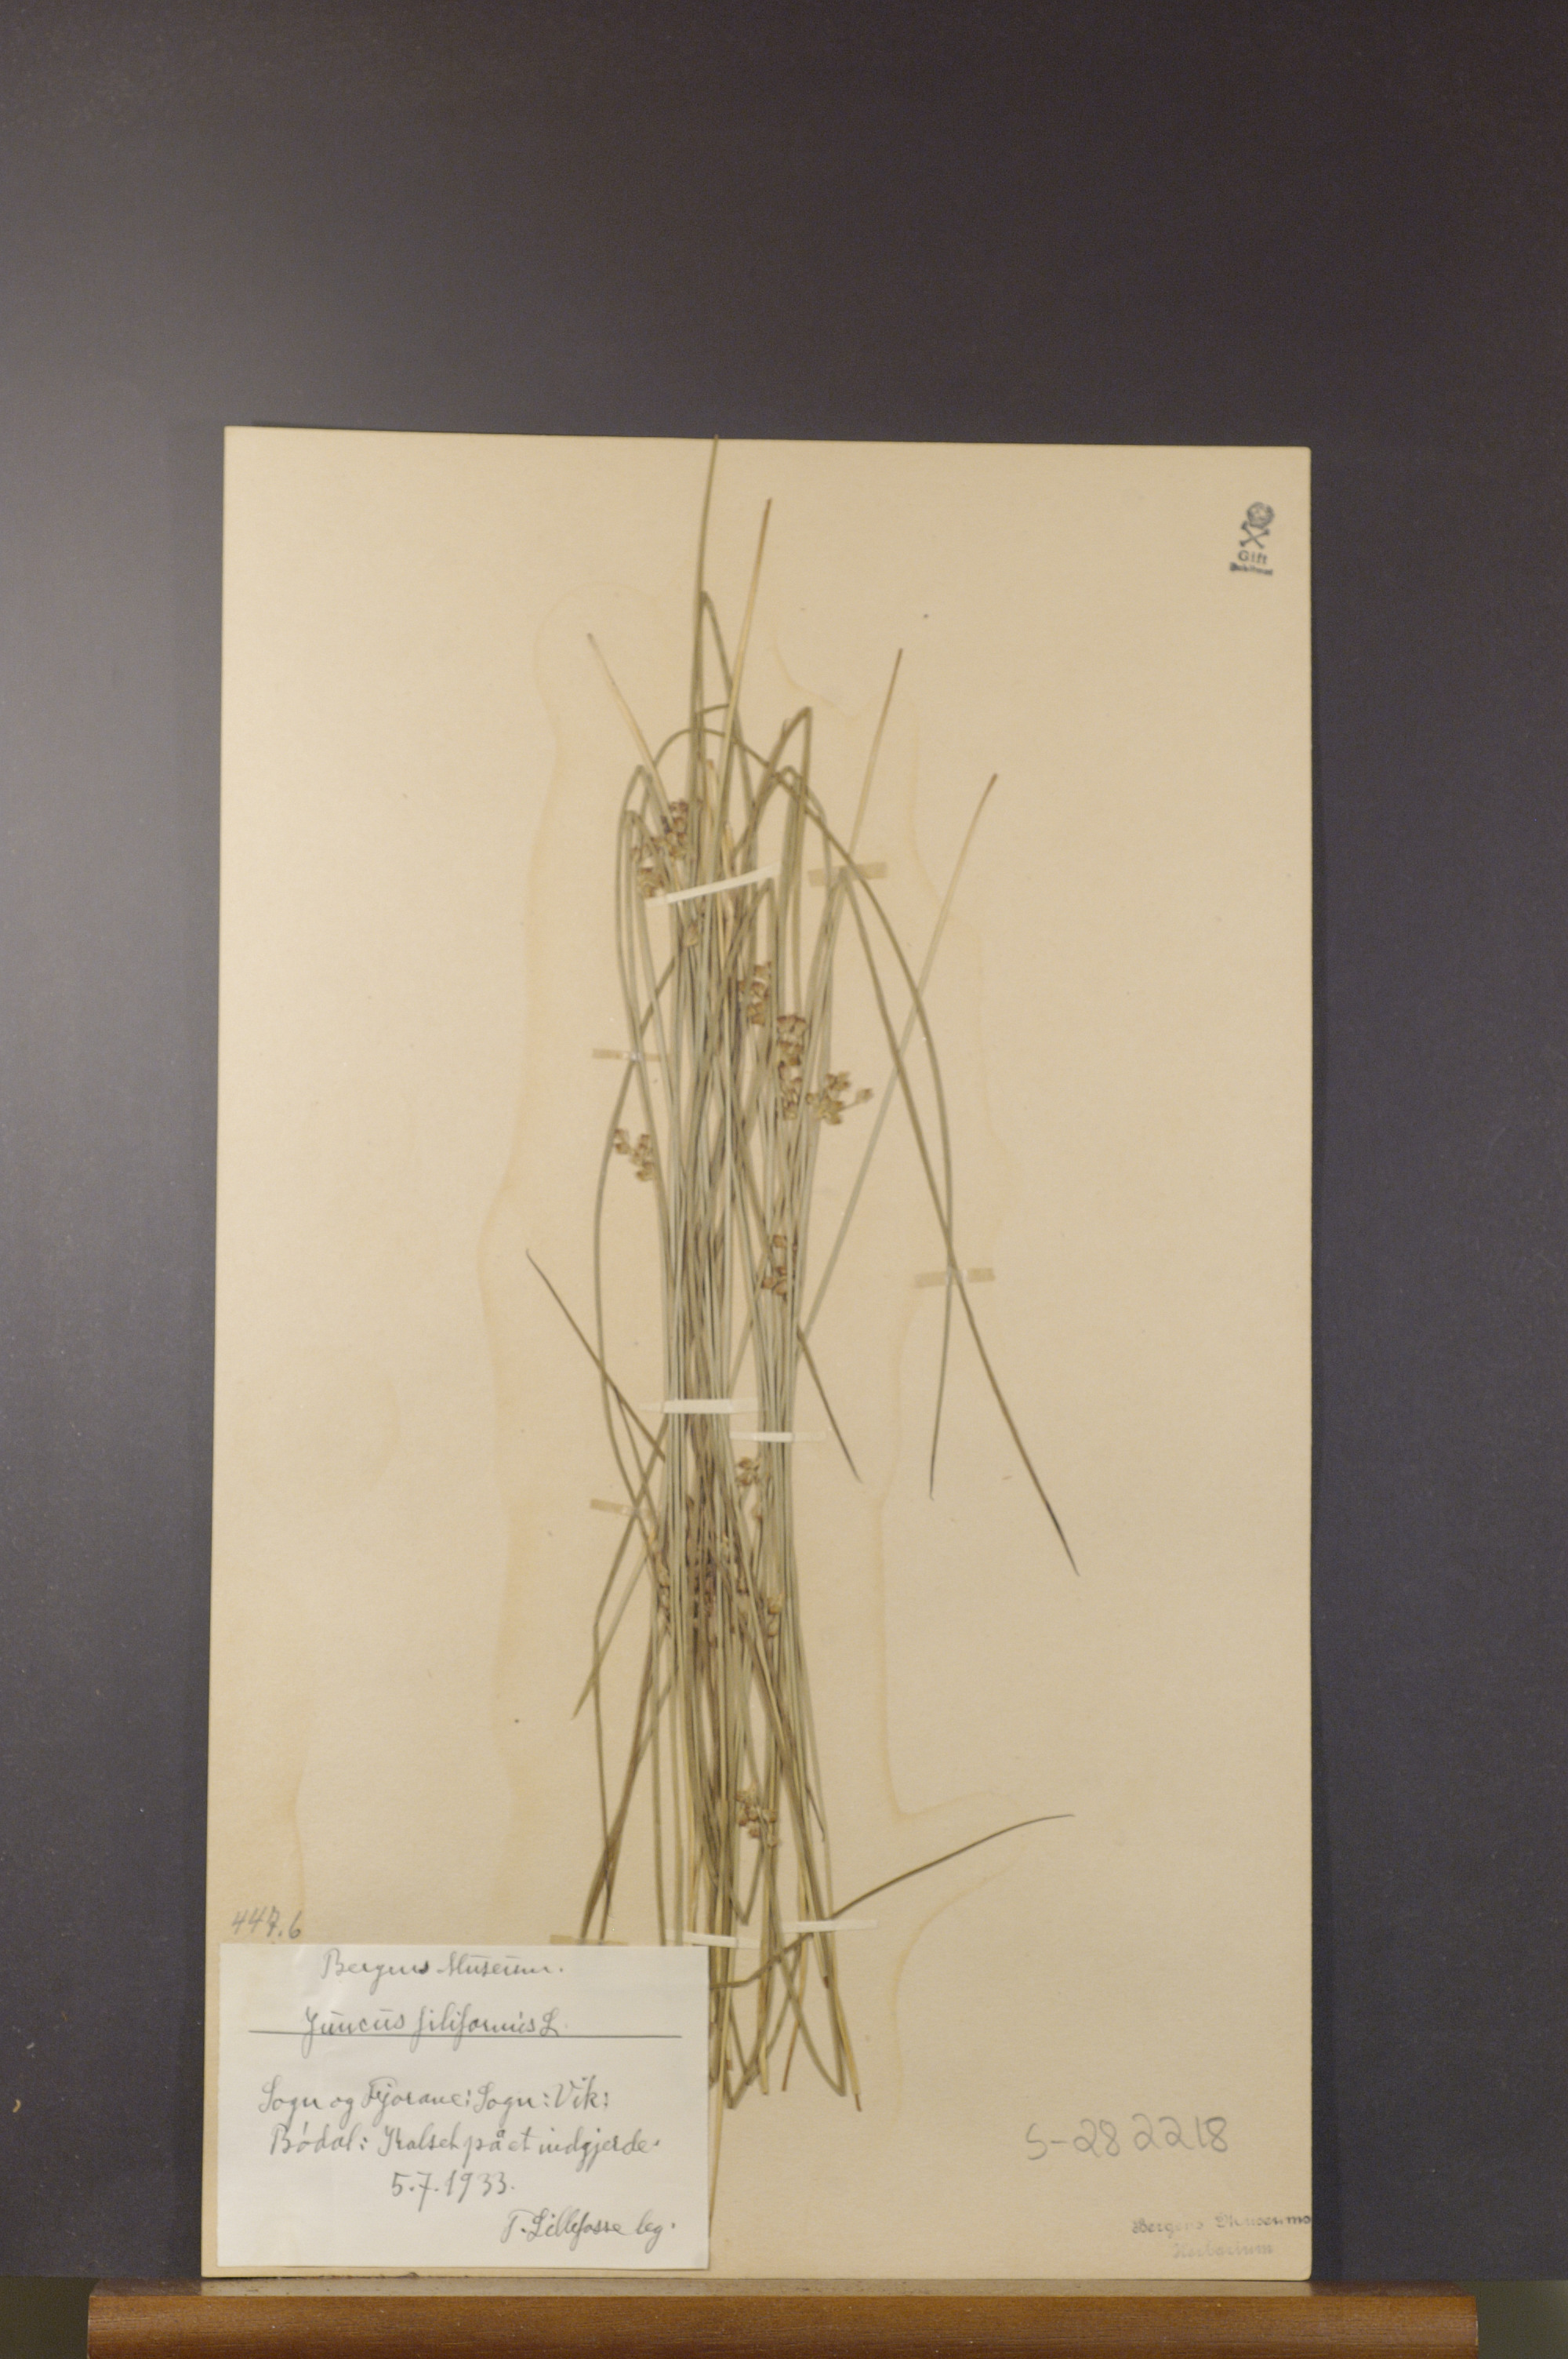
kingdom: Plantae
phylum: Tracheophyta
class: Liliopsida
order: Poales
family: Juncaceae
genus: Juncus
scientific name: Juncus filiformis
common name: Thread rush
